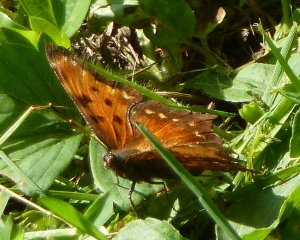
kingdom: Animalia
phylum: Arthropoda
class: Insecta
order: Lepidoptera
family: Nymphalidae
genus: Polygonia
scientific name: Polygonia comma
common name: Eastern Comma
